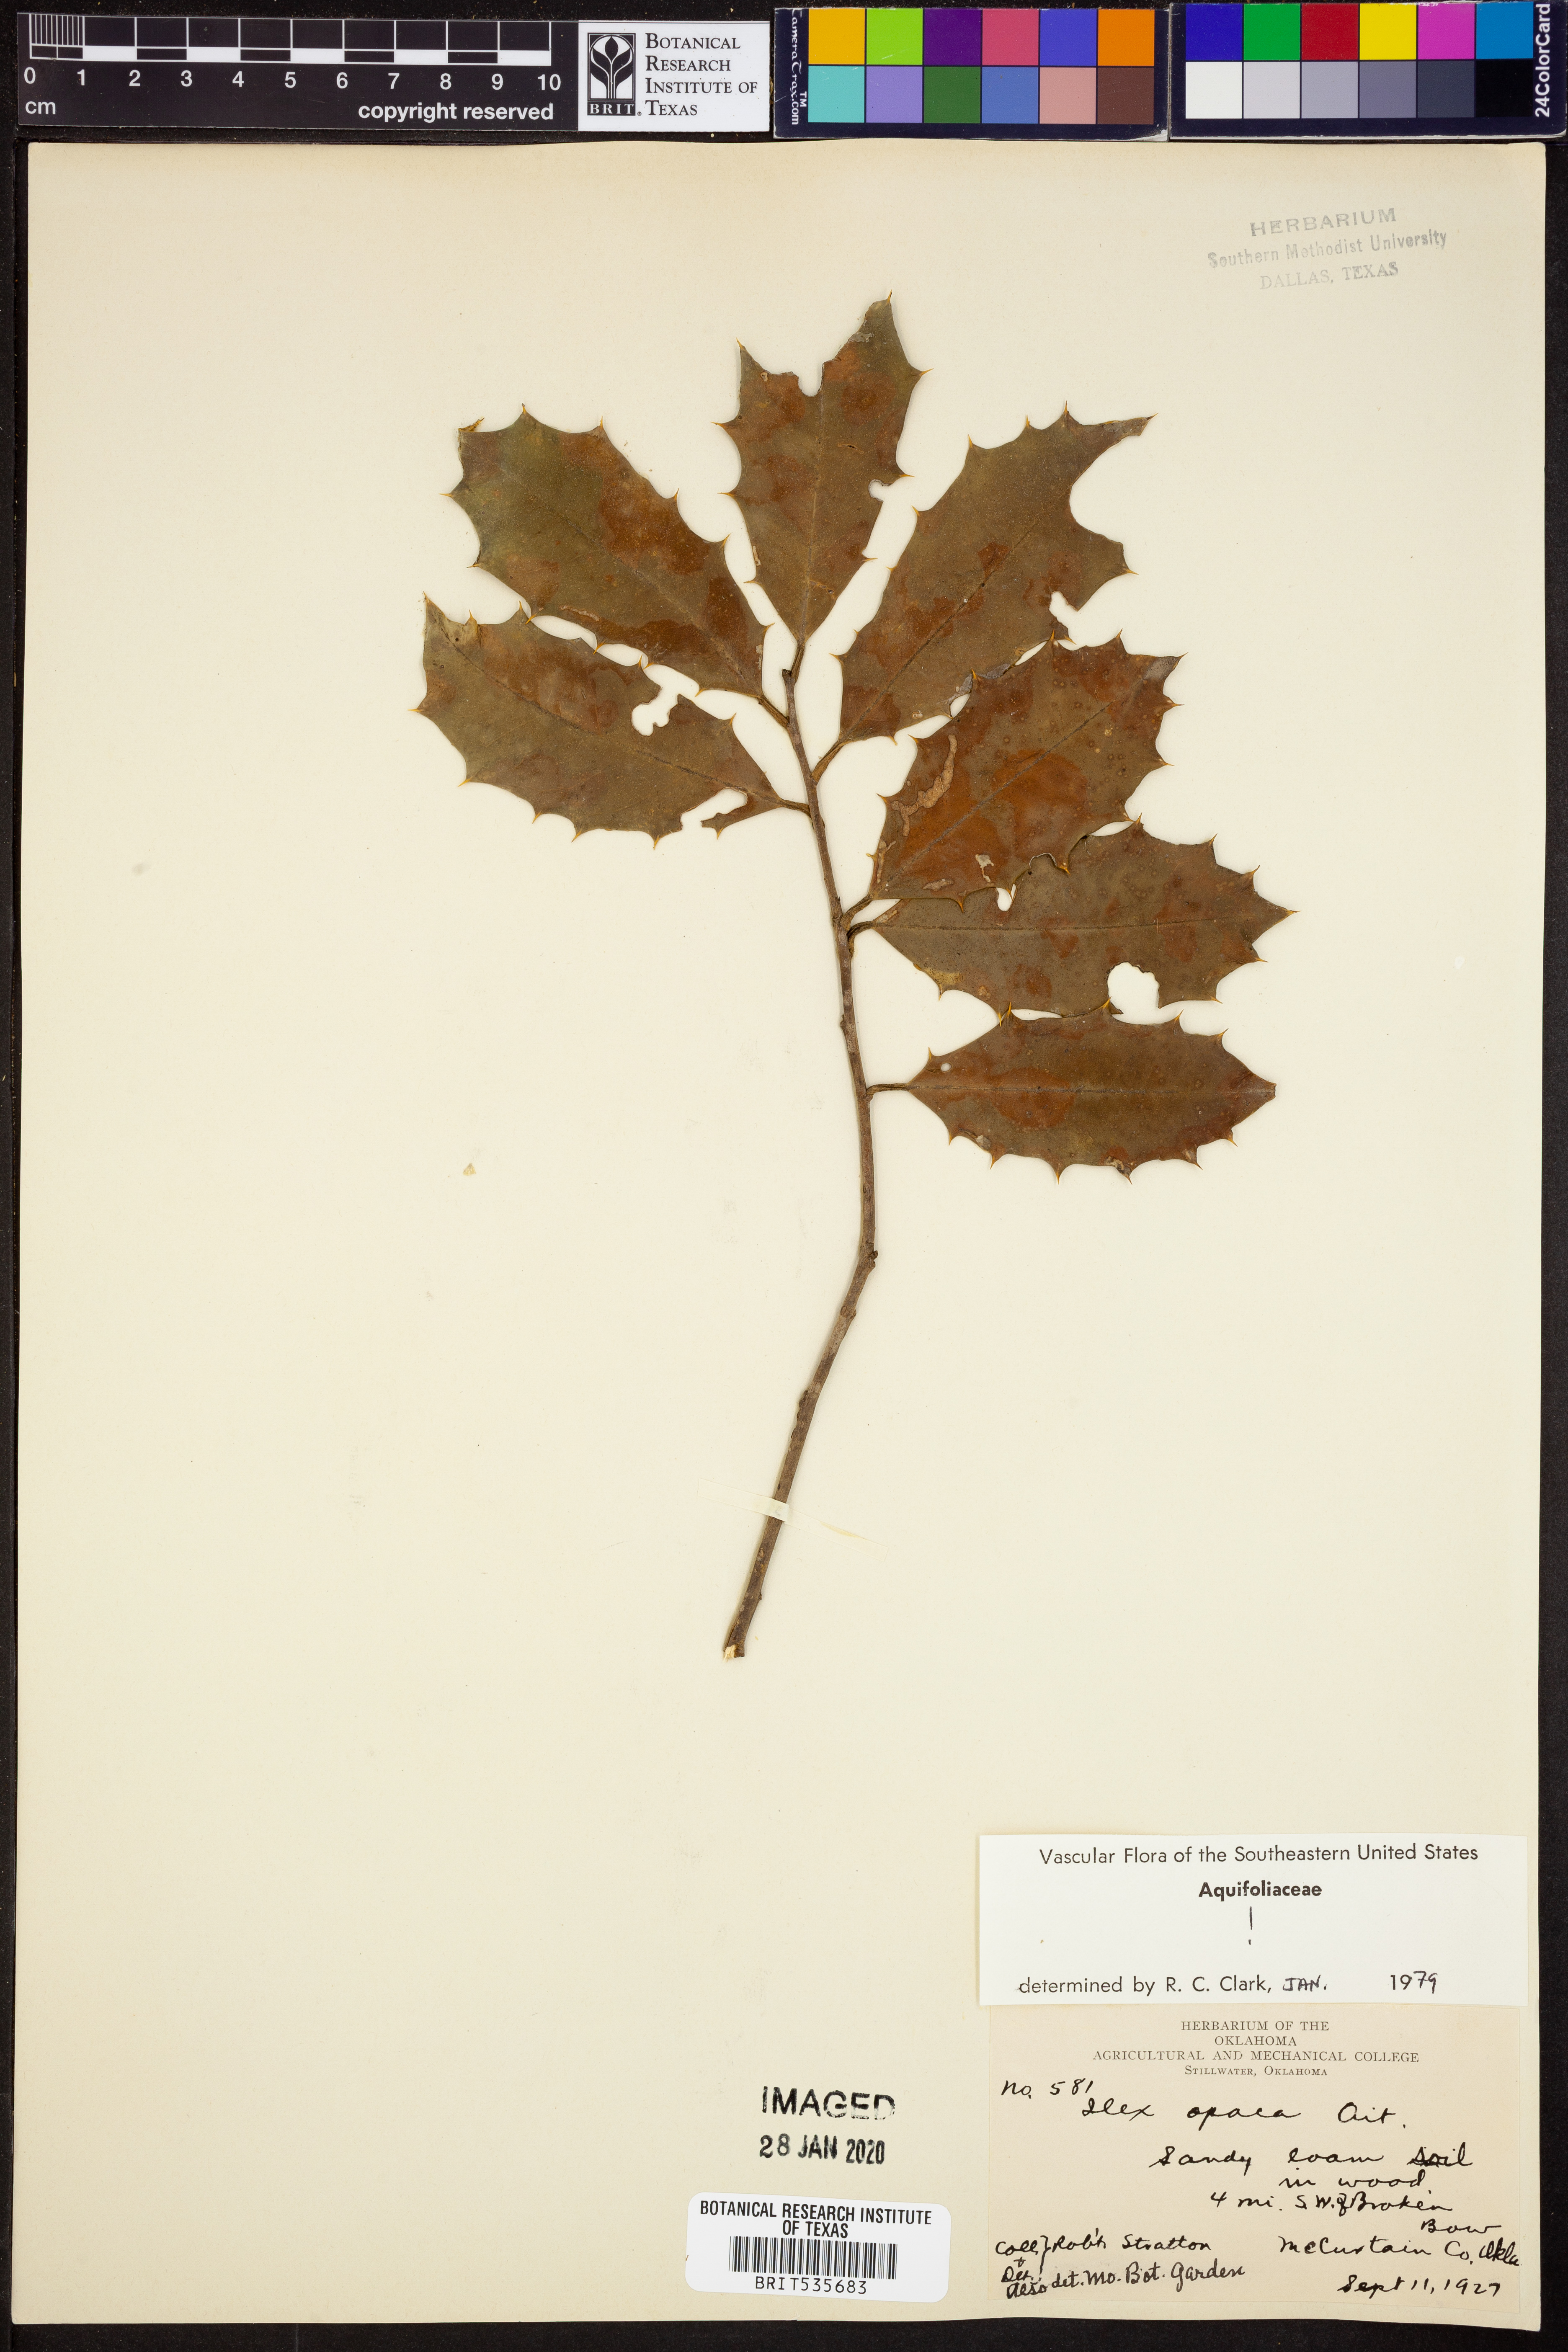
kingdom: Plantae
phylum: Tracheophyta
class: Magnoliopsida
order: Aquifoliales
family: Aquifoliaceae
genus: Ilex
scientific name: Ilex opaca
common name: American holly
